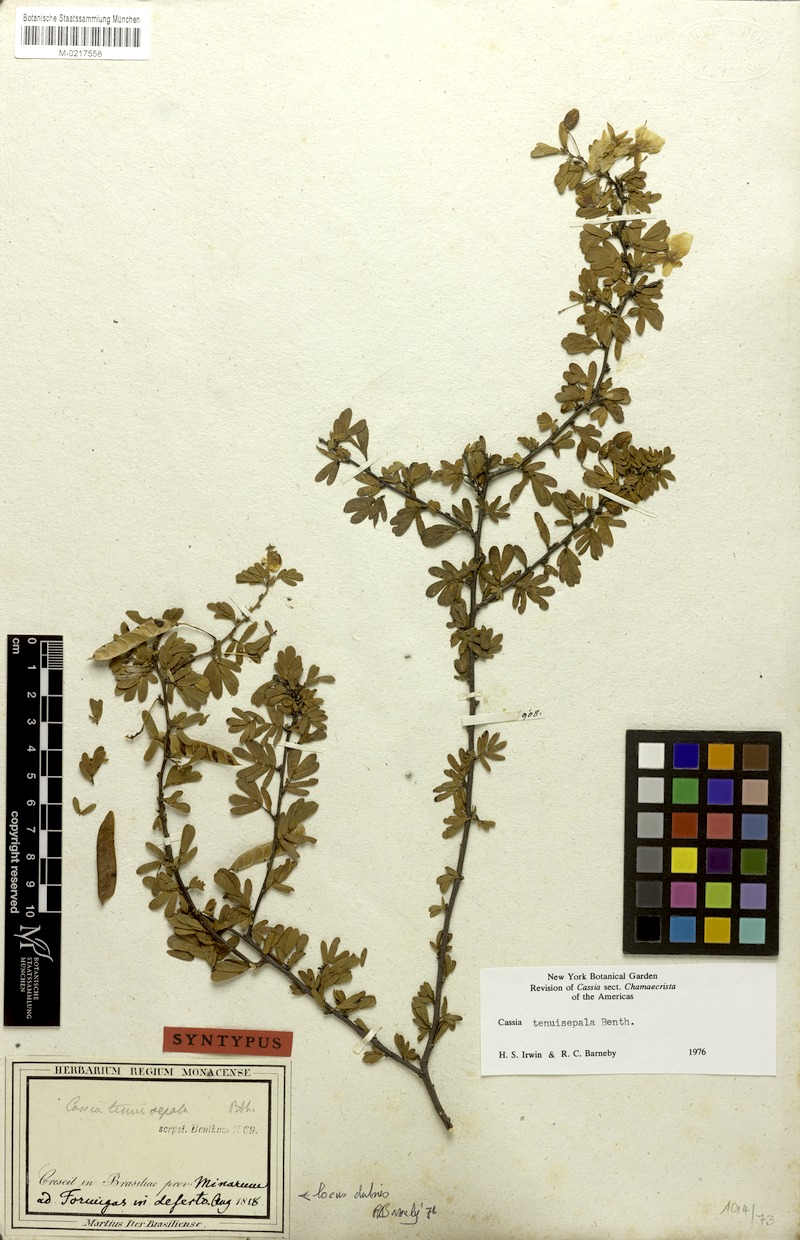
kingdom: Plantae
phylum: Tracheophyta
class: Magnoliopsida
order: Fabales
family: Fabaceae
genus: Chamaecrista
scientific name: Chamaecrista tenuisepala
